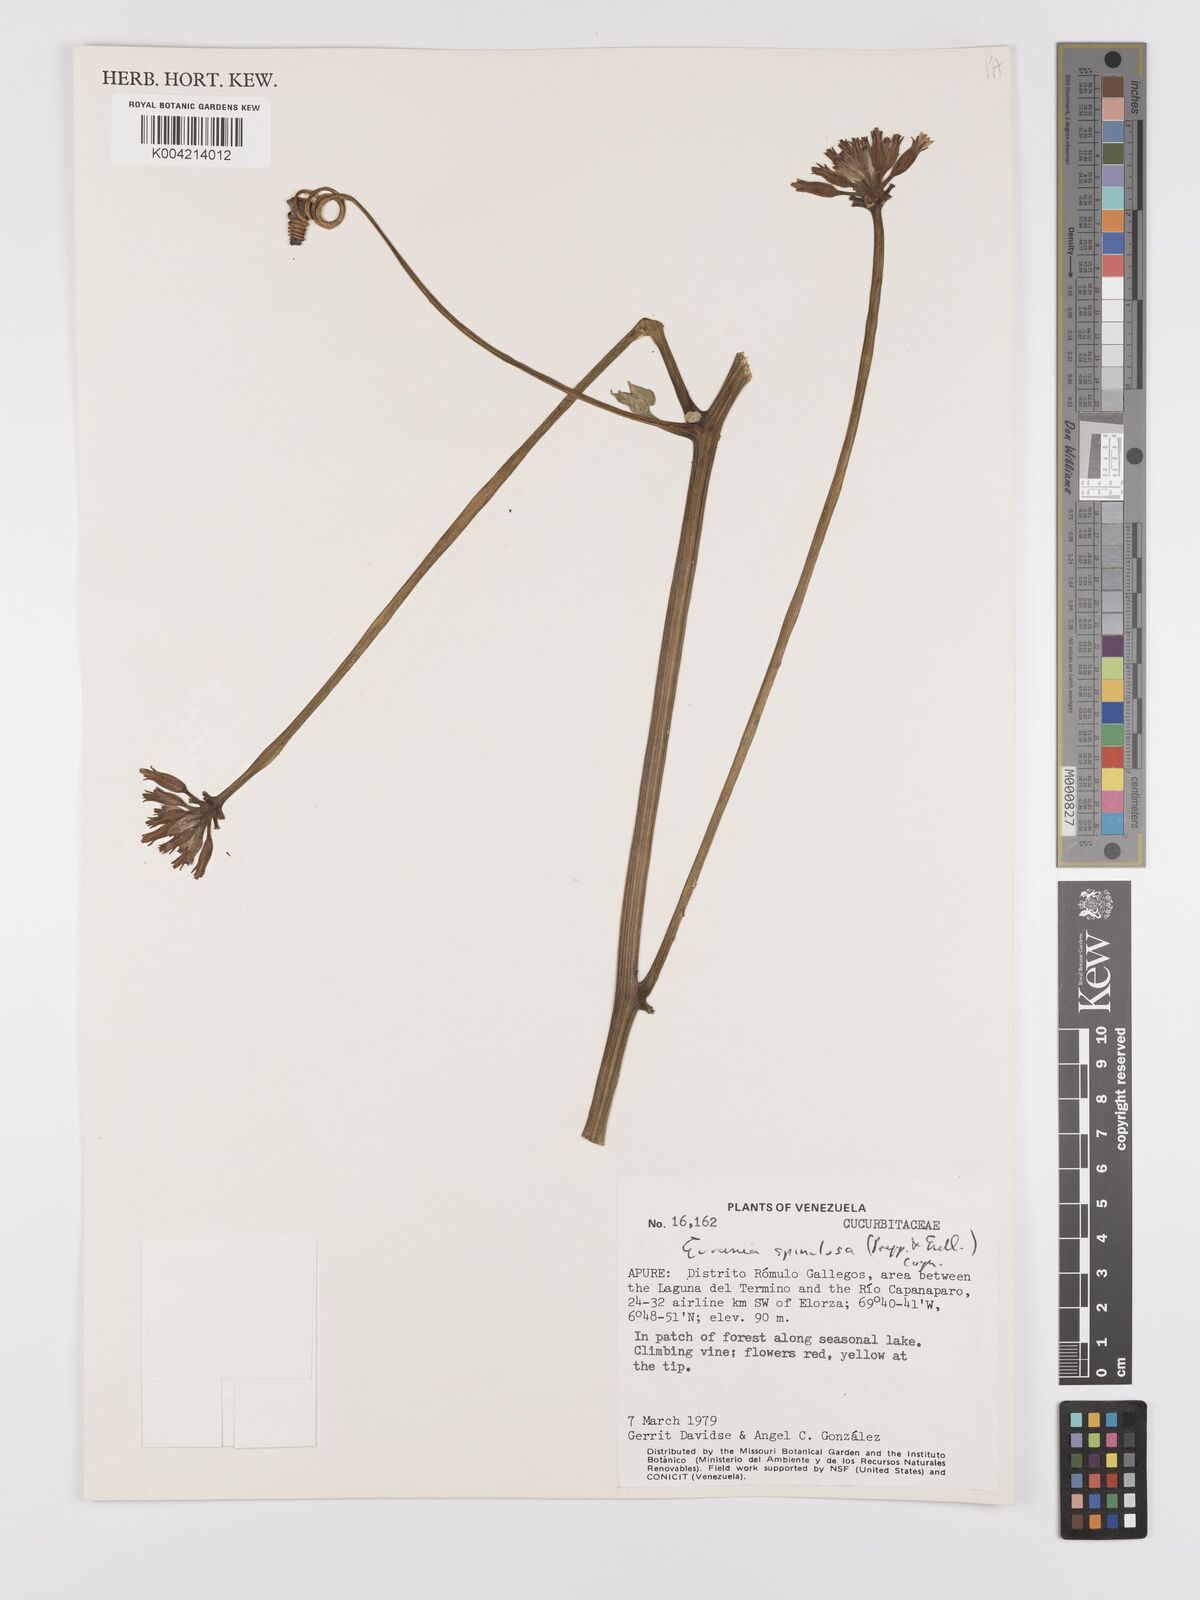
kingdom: Plantae
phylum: Tracheophyta
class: Magnoliopsida
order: Cucurbitales
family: Cucurbitaceae
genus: Gurania
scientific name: Gurania lobata
